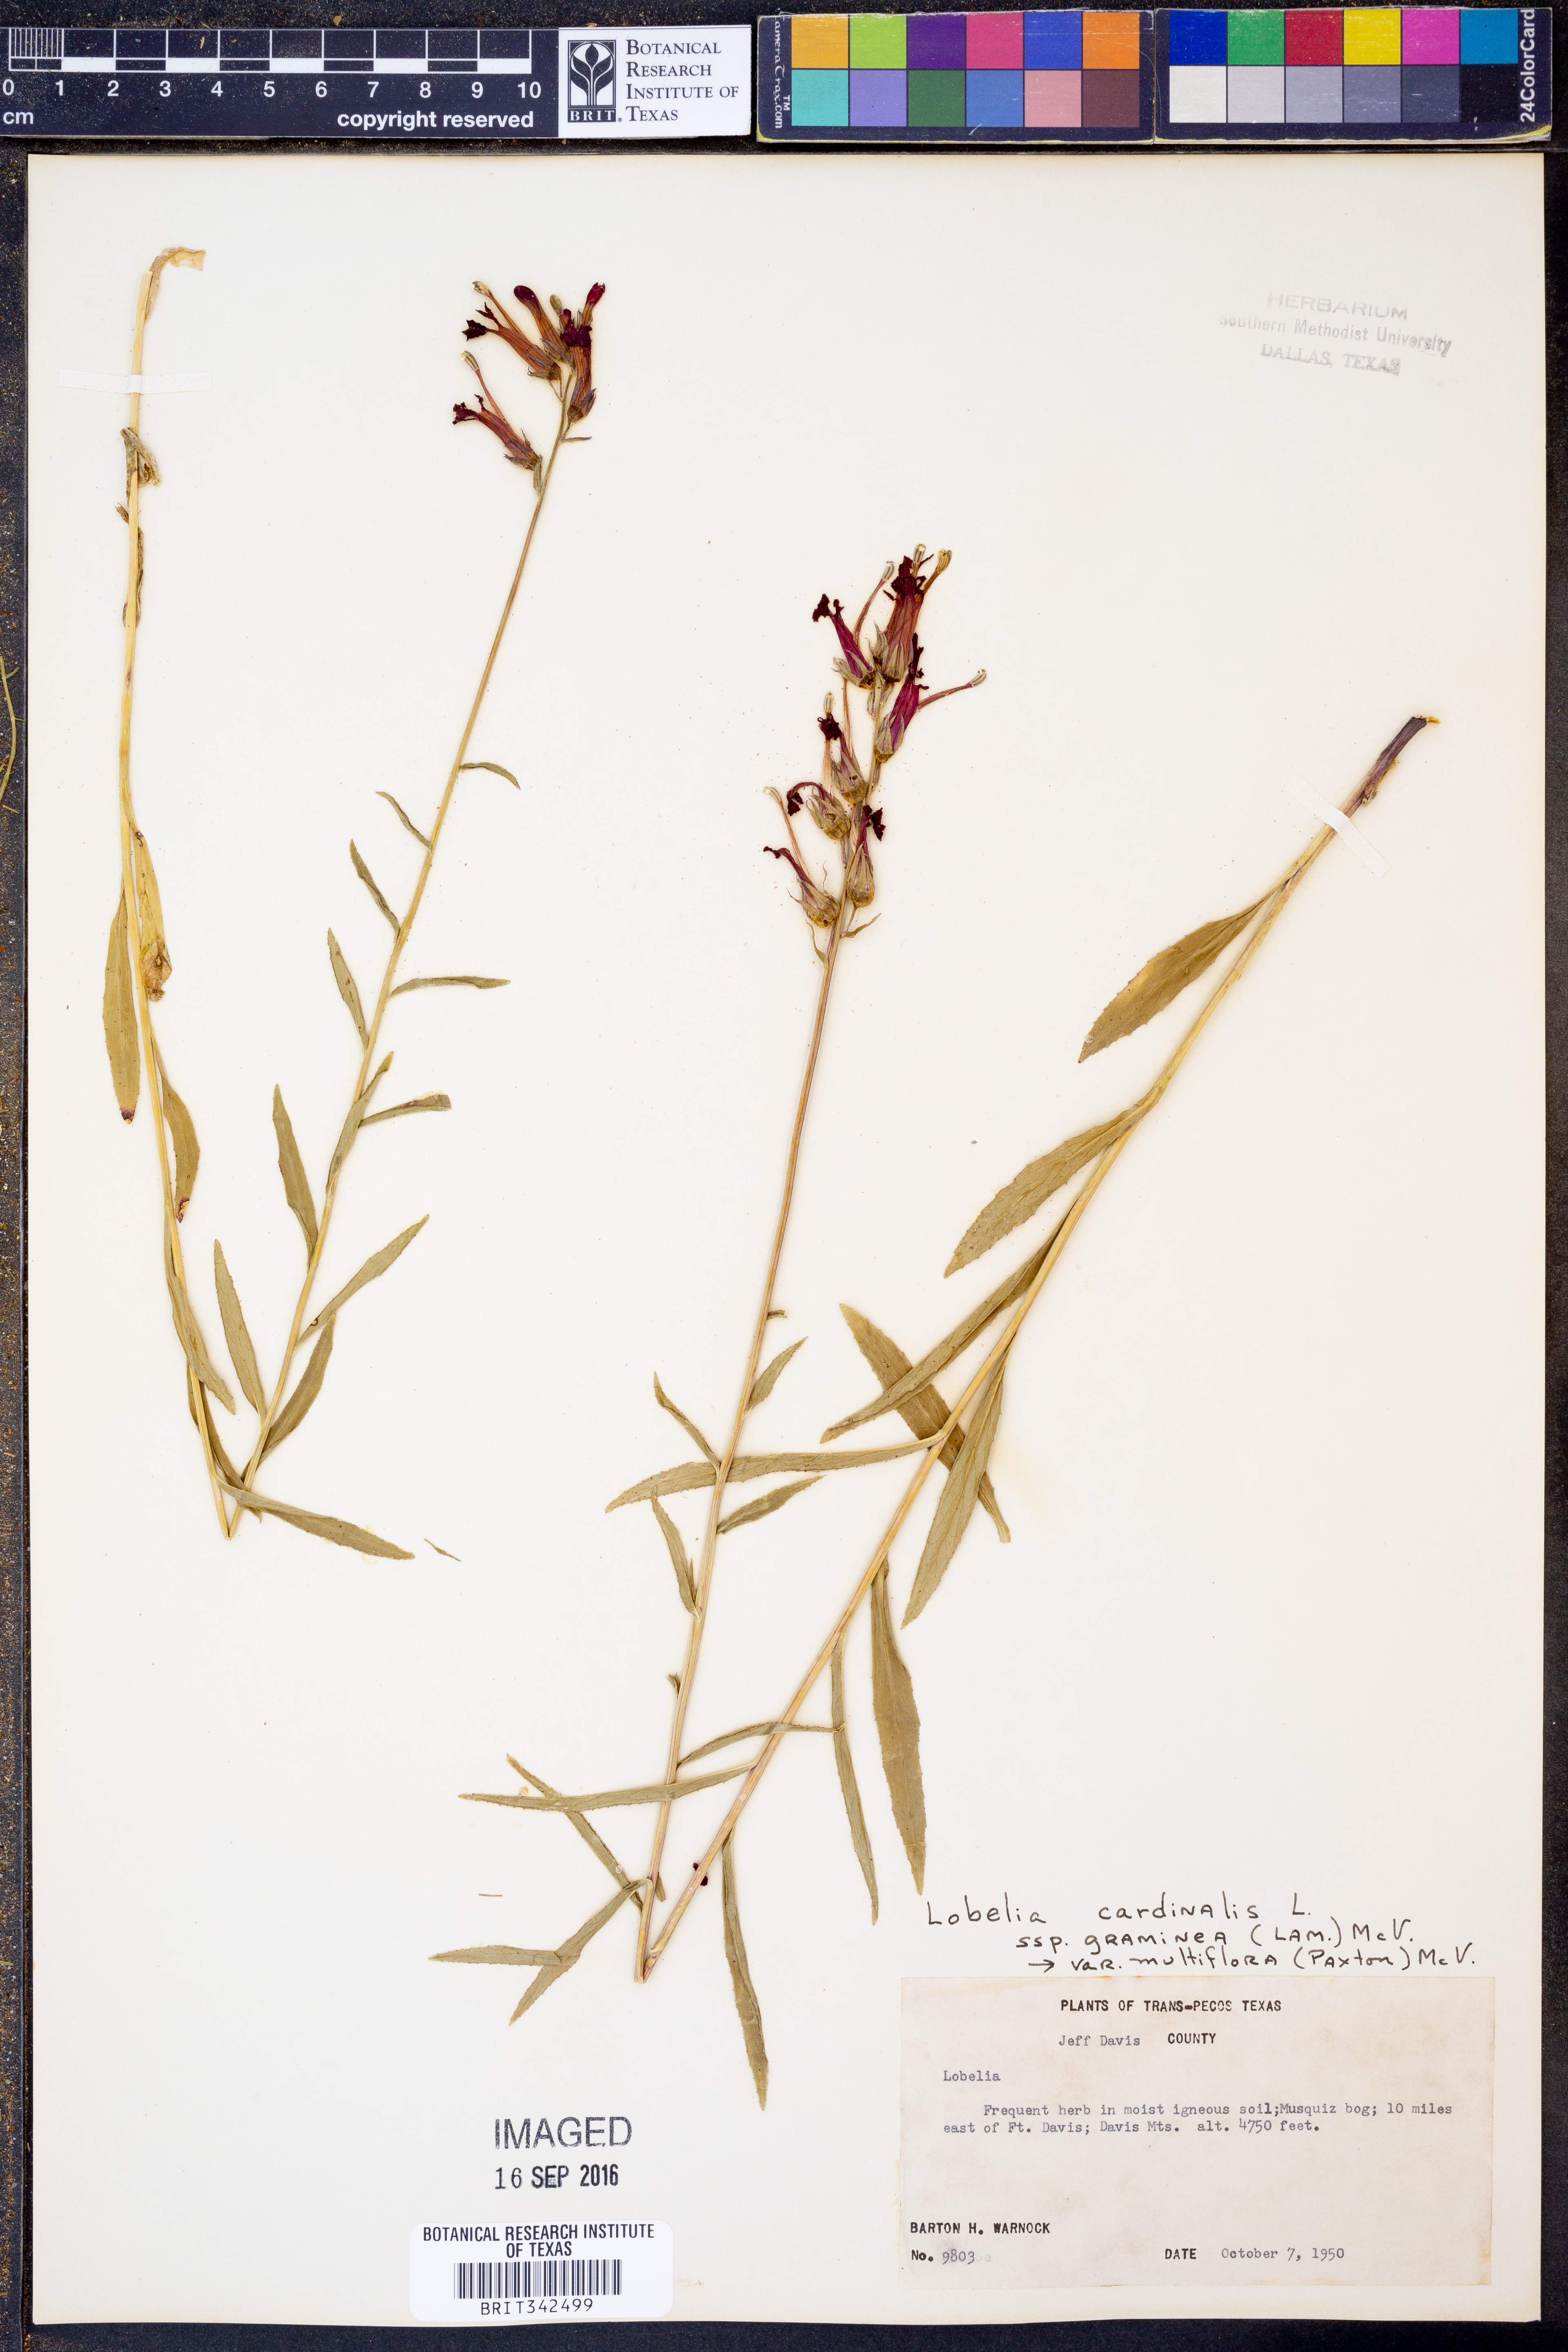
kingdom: Plantae
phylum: Tracheophyta
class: Magnoliopsida
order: Asterales
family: Campanulaceae
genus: Lobelia
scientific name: Lobelia cardinalis
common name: Cardinal flower
